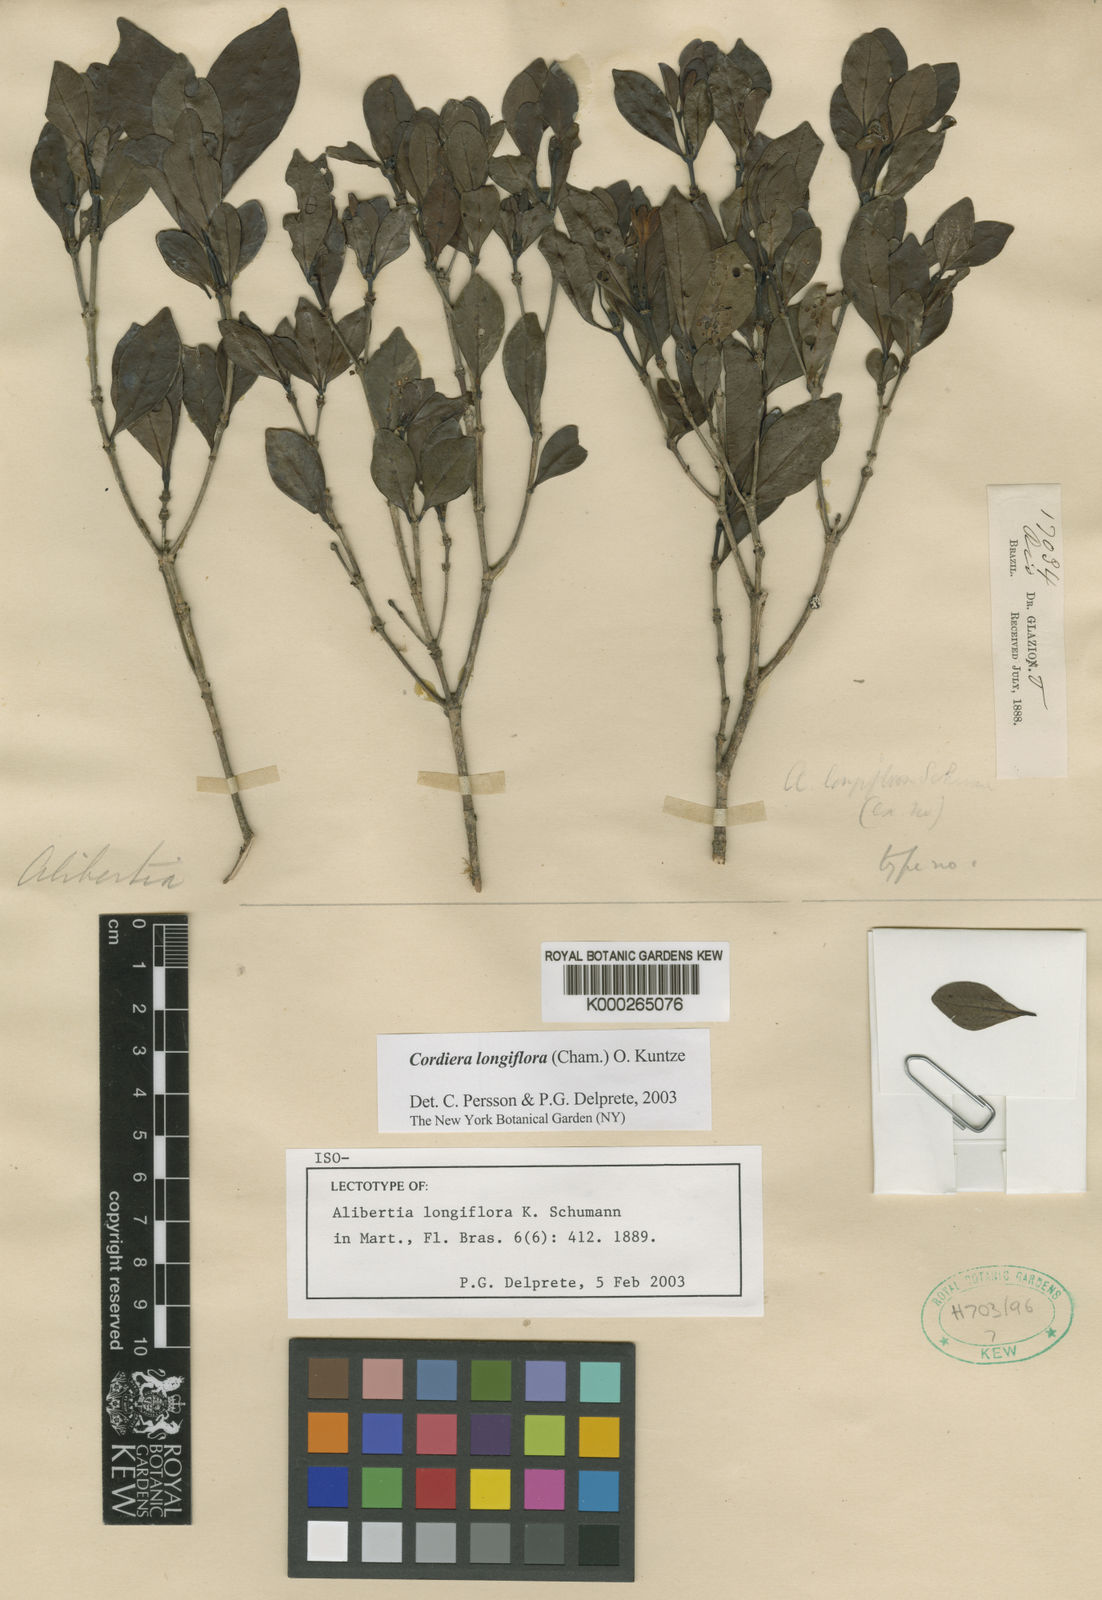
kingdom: Plantae
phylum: Tracheophyta
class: Magnoliopsida
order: Gentianales
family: Rubiaceae
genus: Cordiera
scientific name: Cordiera longiflora
